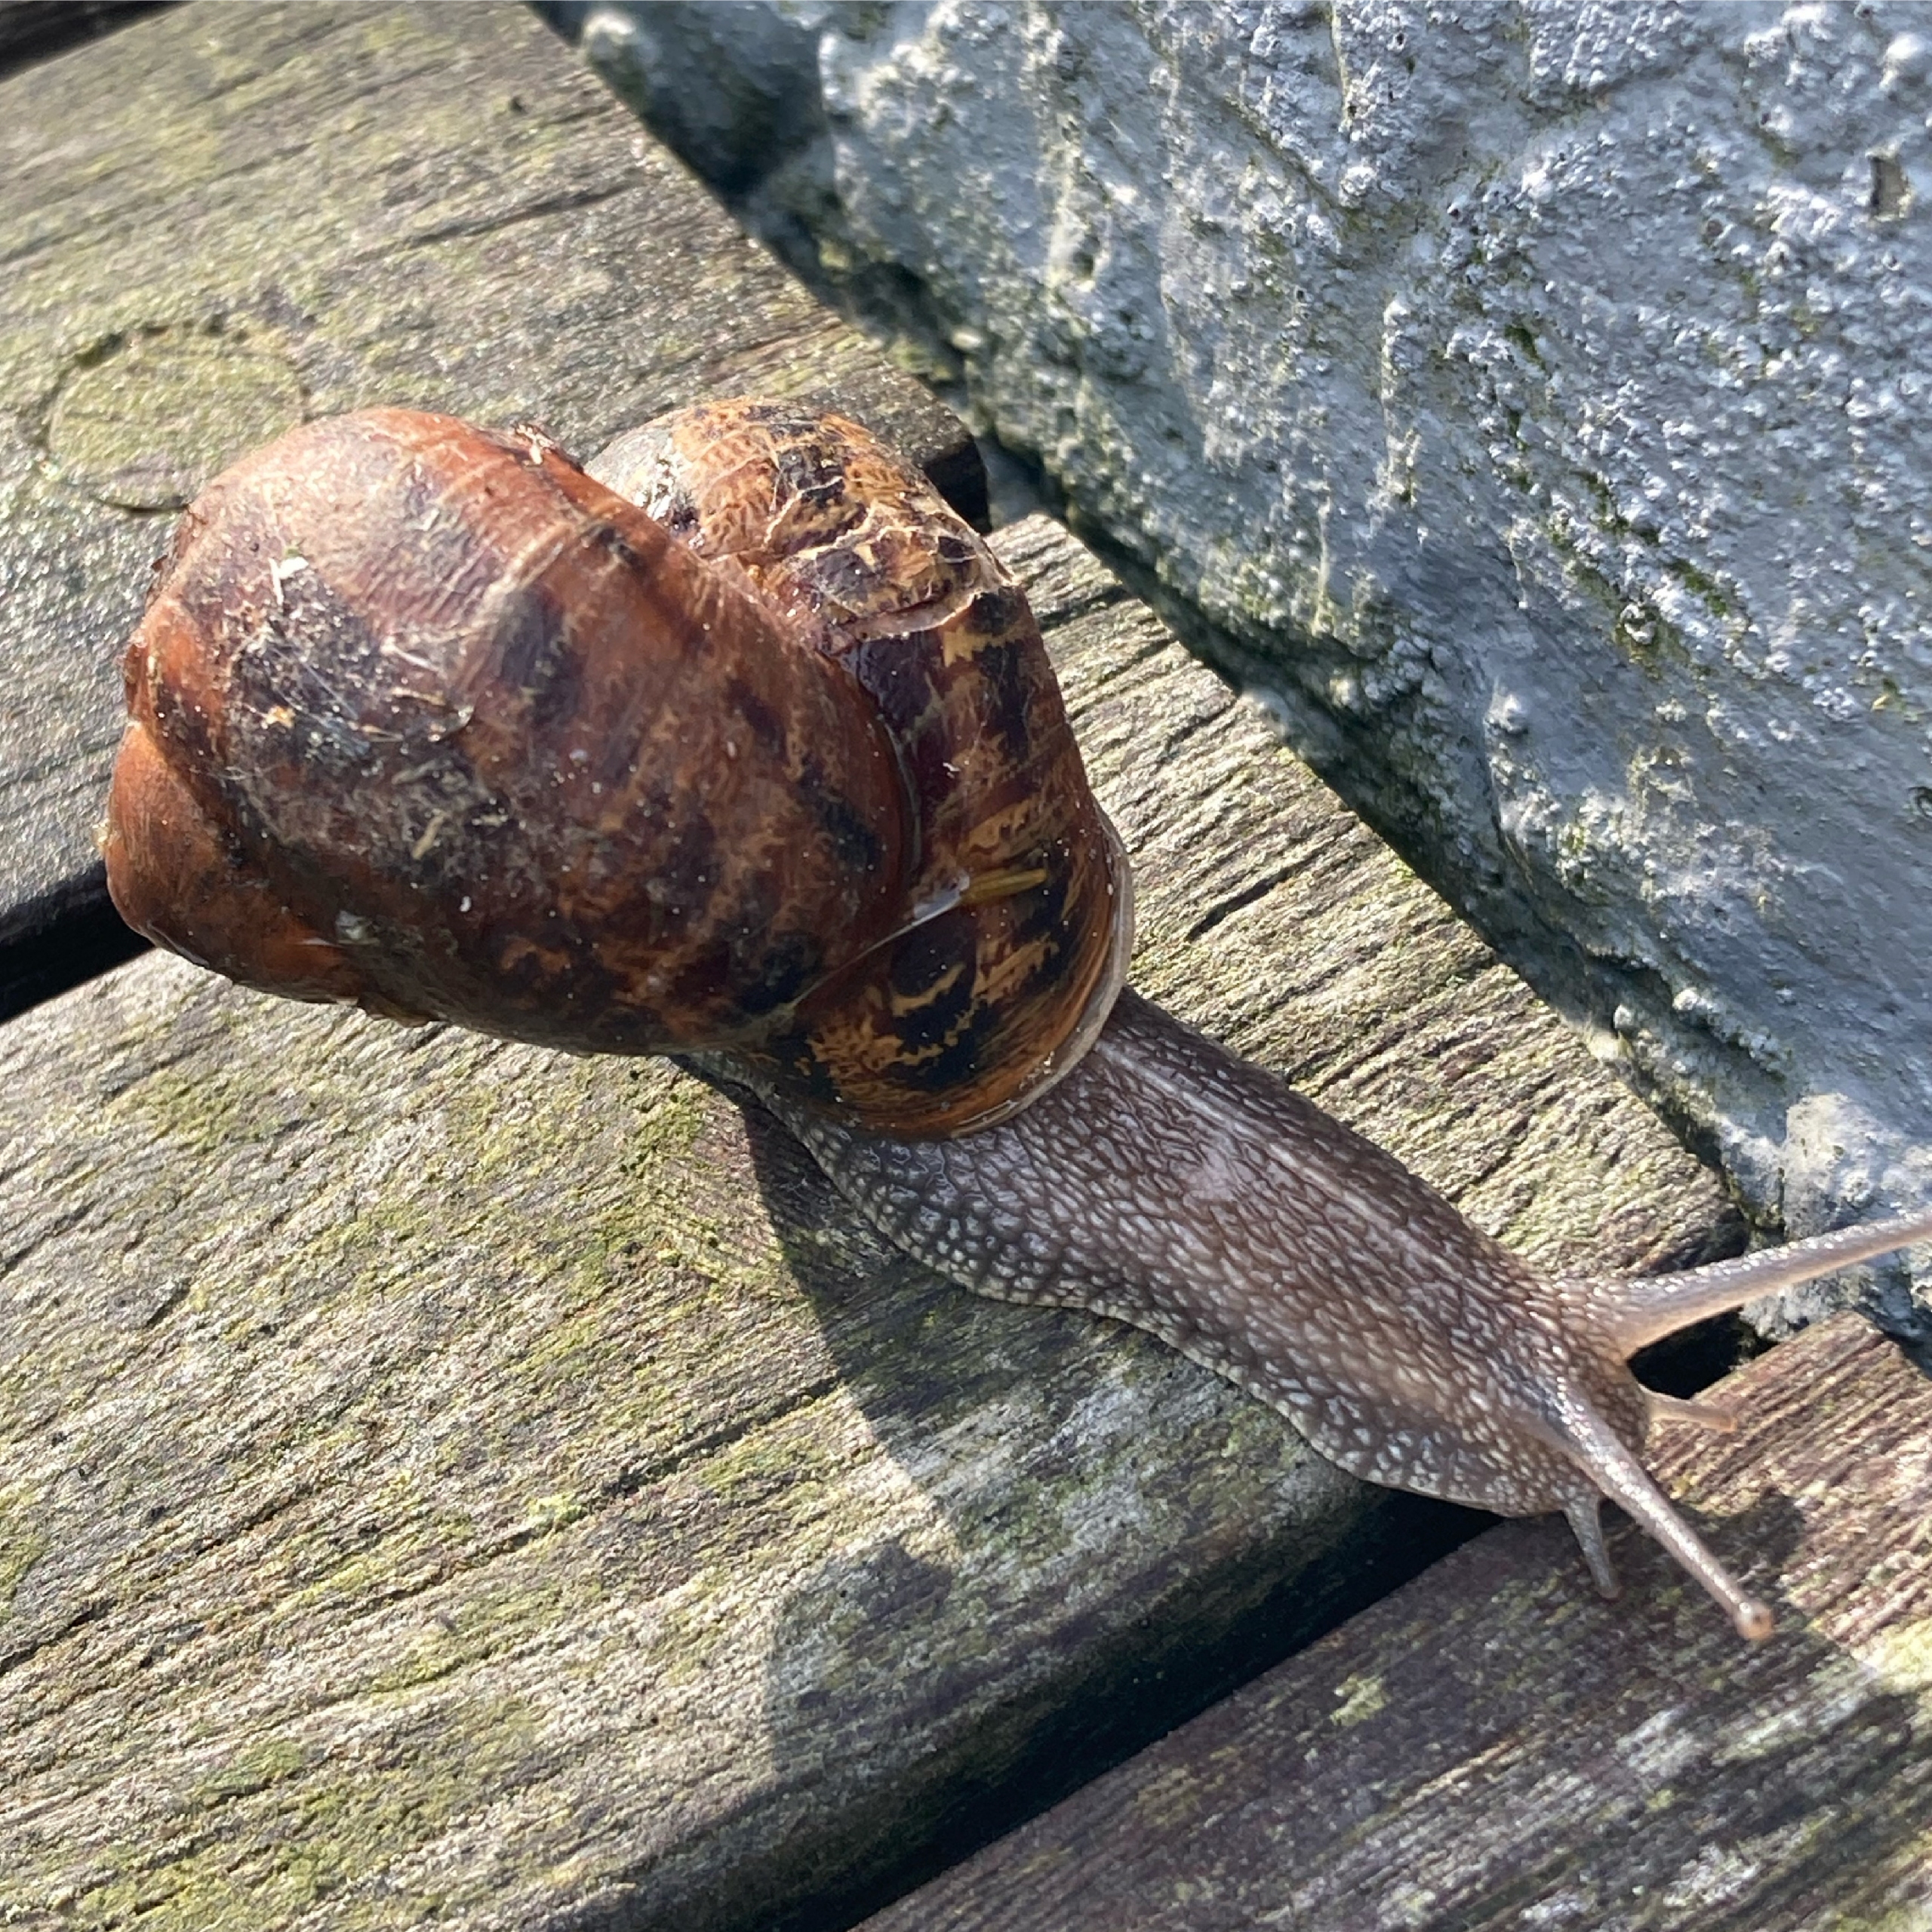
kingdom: Animalia
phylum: Mollusca
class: Gastropoda
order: Stylommatophora
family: Helicidae
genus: Cornu
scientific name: Cornu aspersum
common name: Plettet voldsnegl
